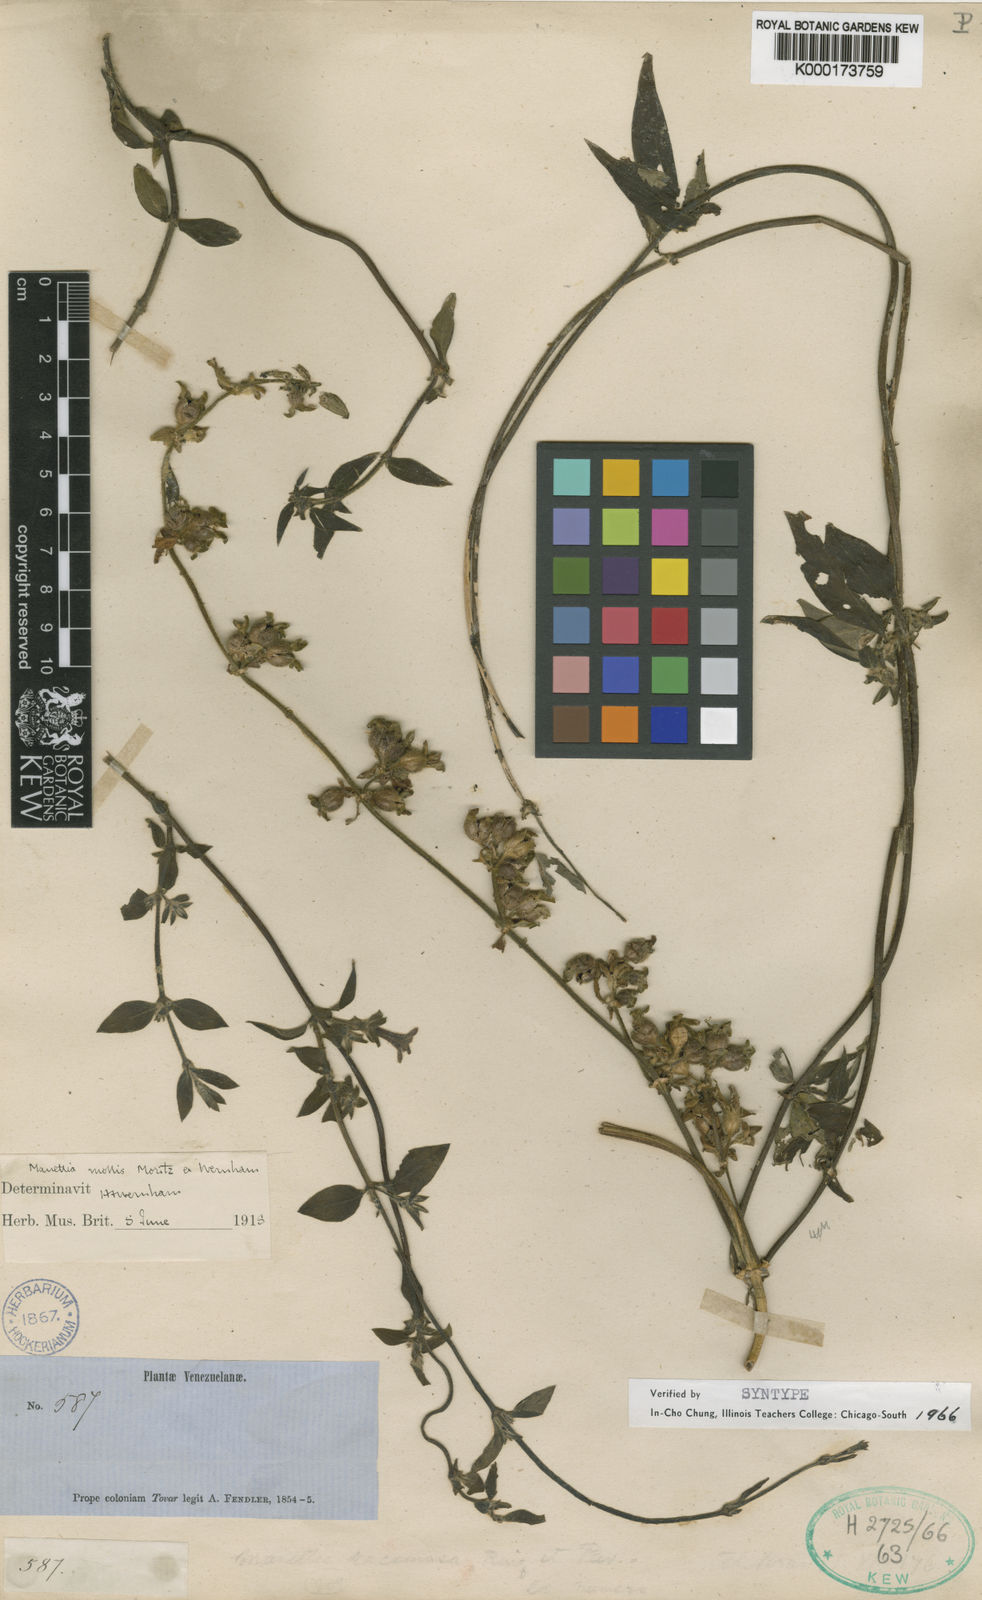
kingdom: Plantae
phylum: Tracheophyta
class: Magnoliopsida
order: Gentianales
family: Rubiaceae
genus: Manettia
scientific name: Manettia mollis
